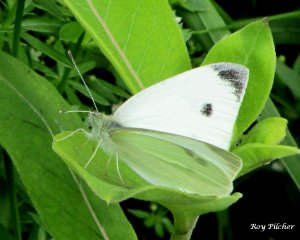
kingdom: Animalia
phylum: Arthropoda
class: Insecta
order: Lepidoptera
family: Pieridae
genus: Pieris
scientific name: Pieris rapae
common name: Cabbage White
